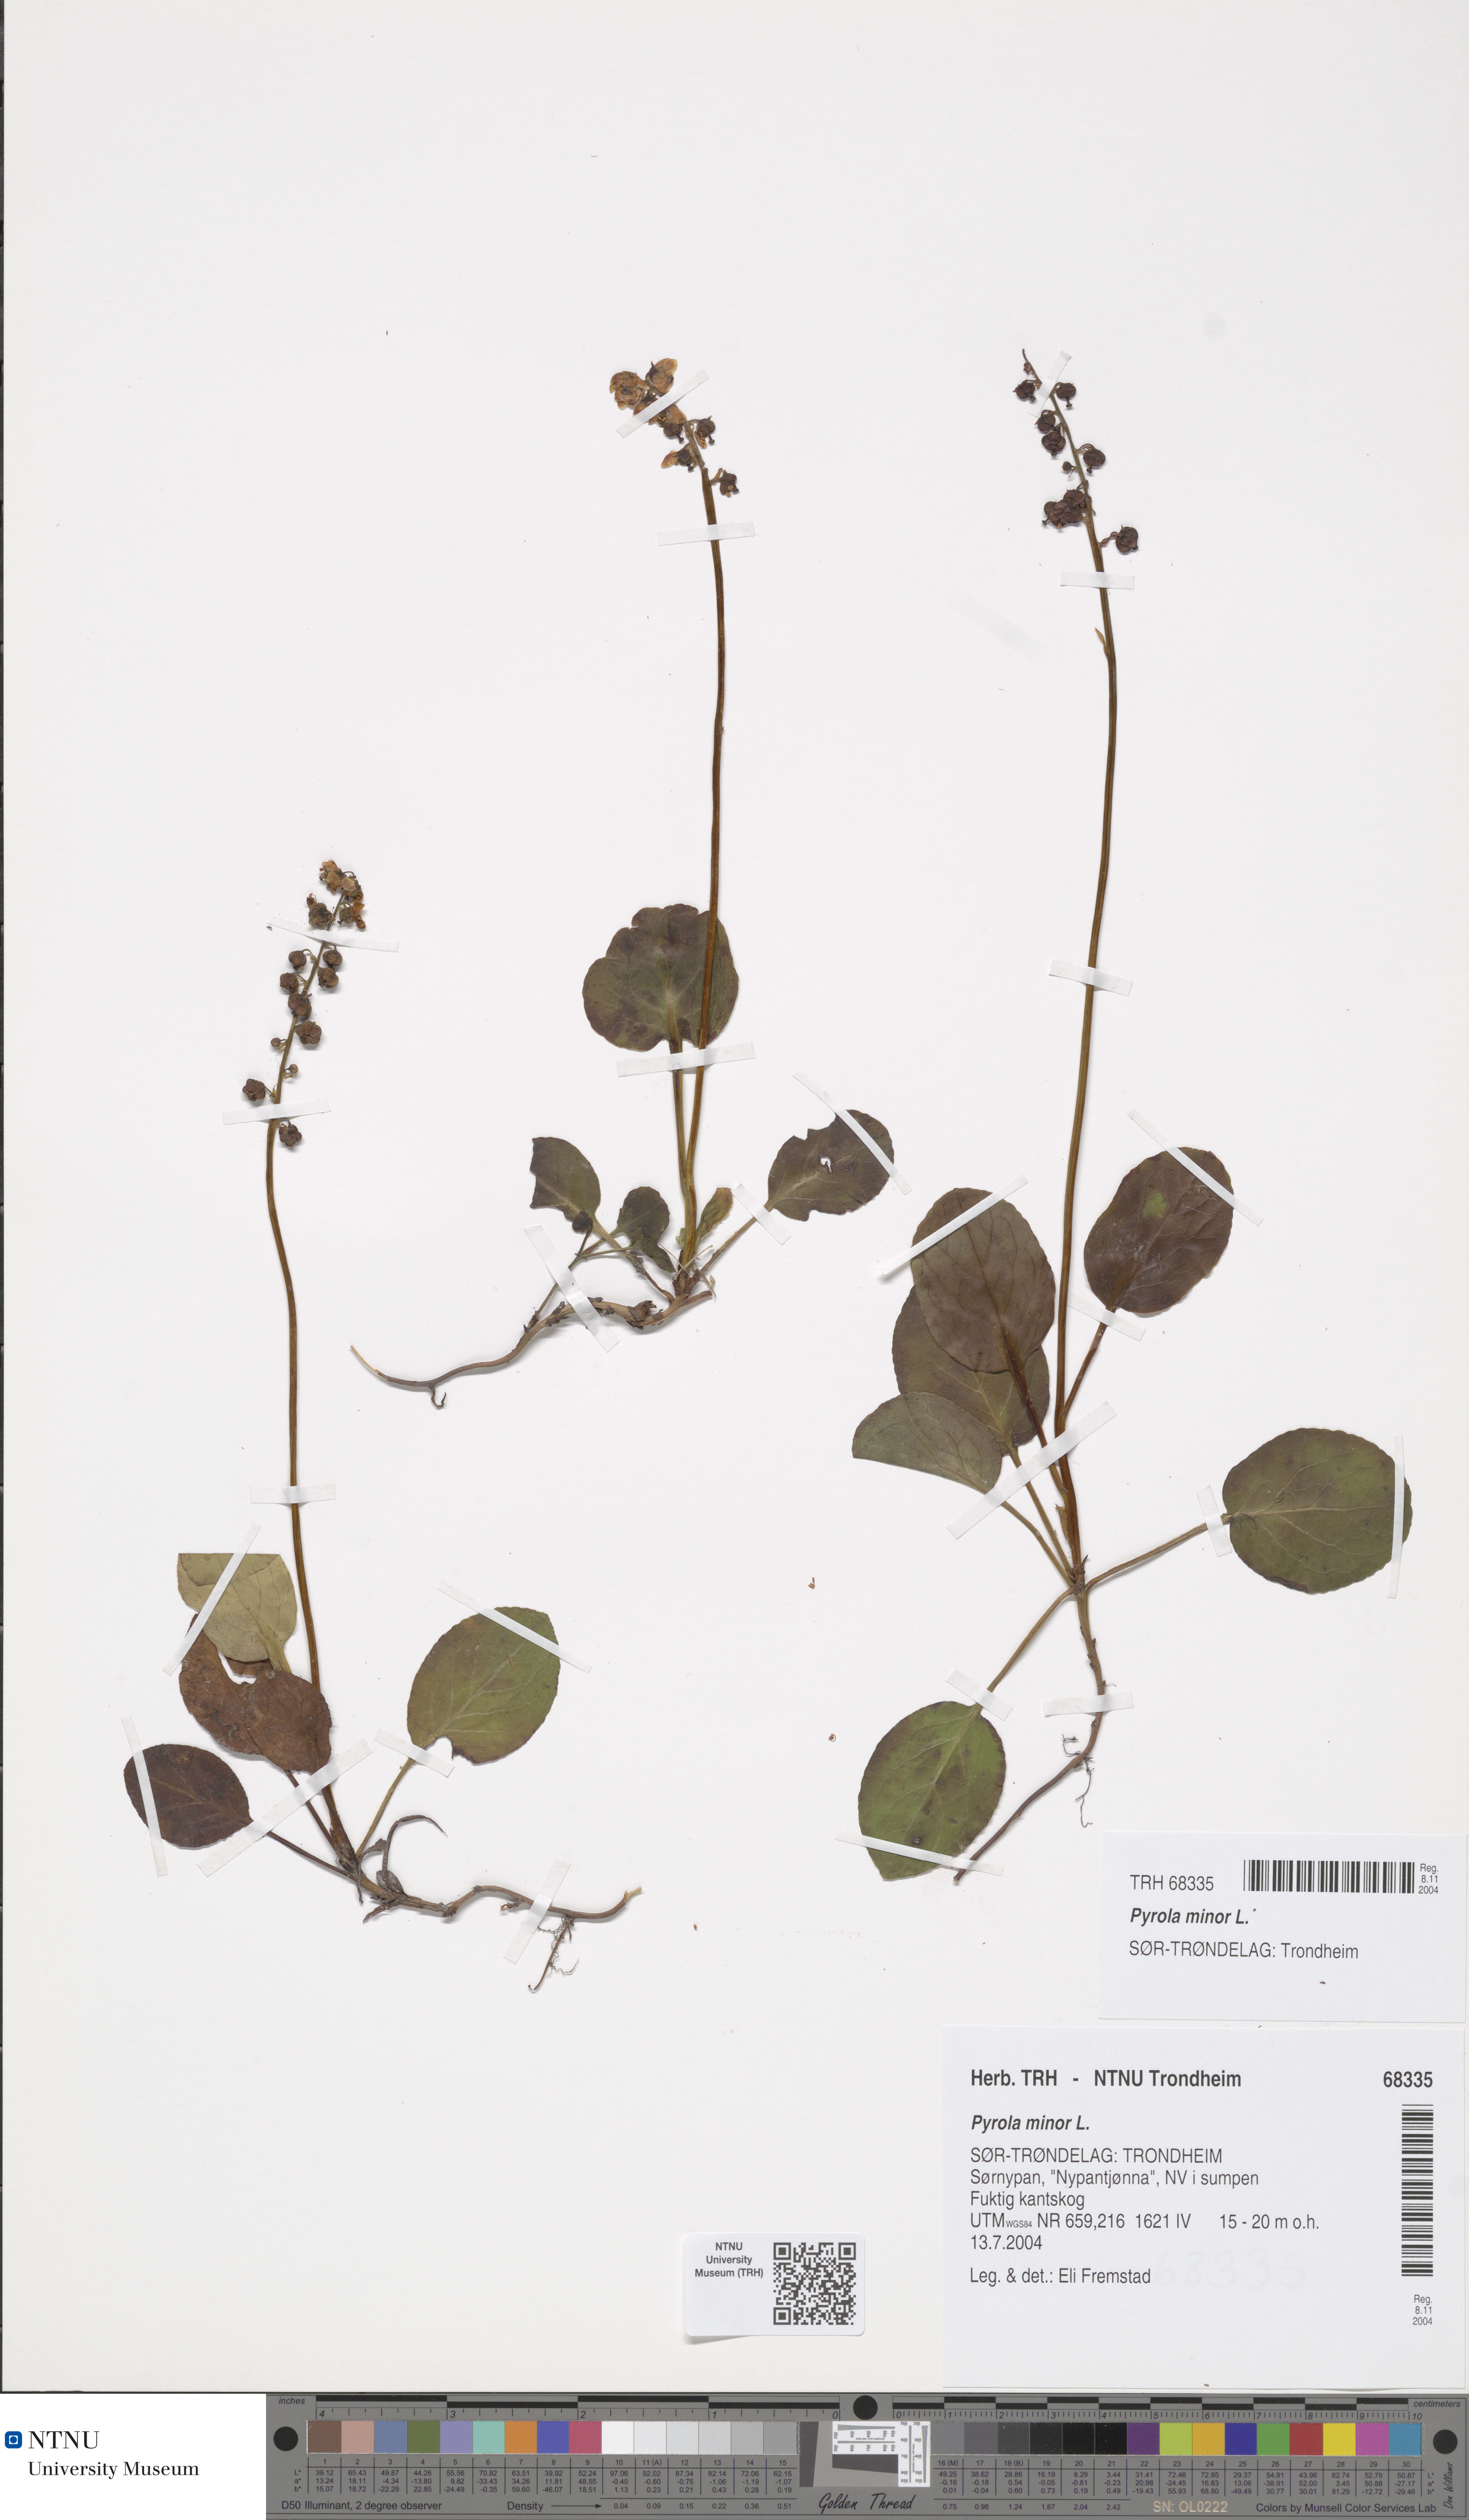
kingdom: Plantae
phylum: Tracheophyta
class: Magnoliopsida
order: Ericales
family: Ericaceae
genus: Pyrola
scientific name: Pyrola minor
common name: Common wintergreen
